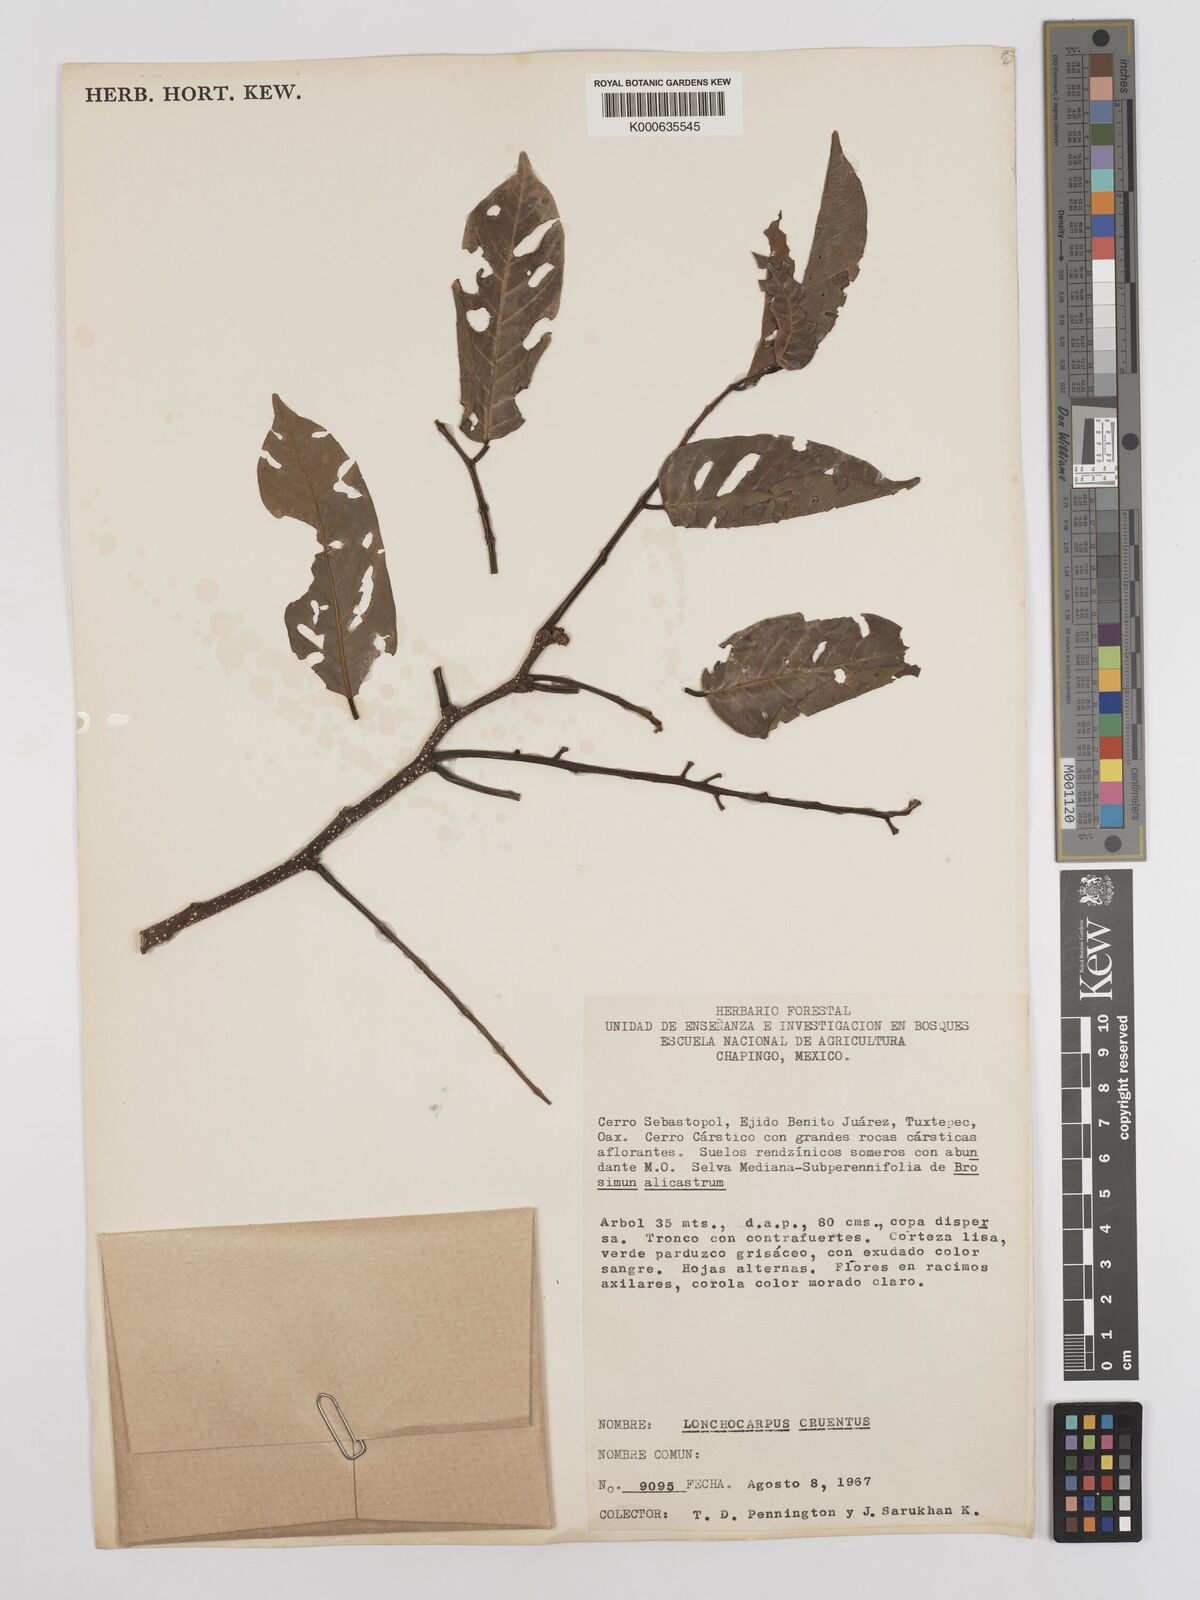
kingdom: Plantae
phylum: Tracheophyta
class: Magnoliopsida
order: Fabales
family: Fabaceae
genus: Lonchocarpus
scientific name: Lonchocarpus cruentus
